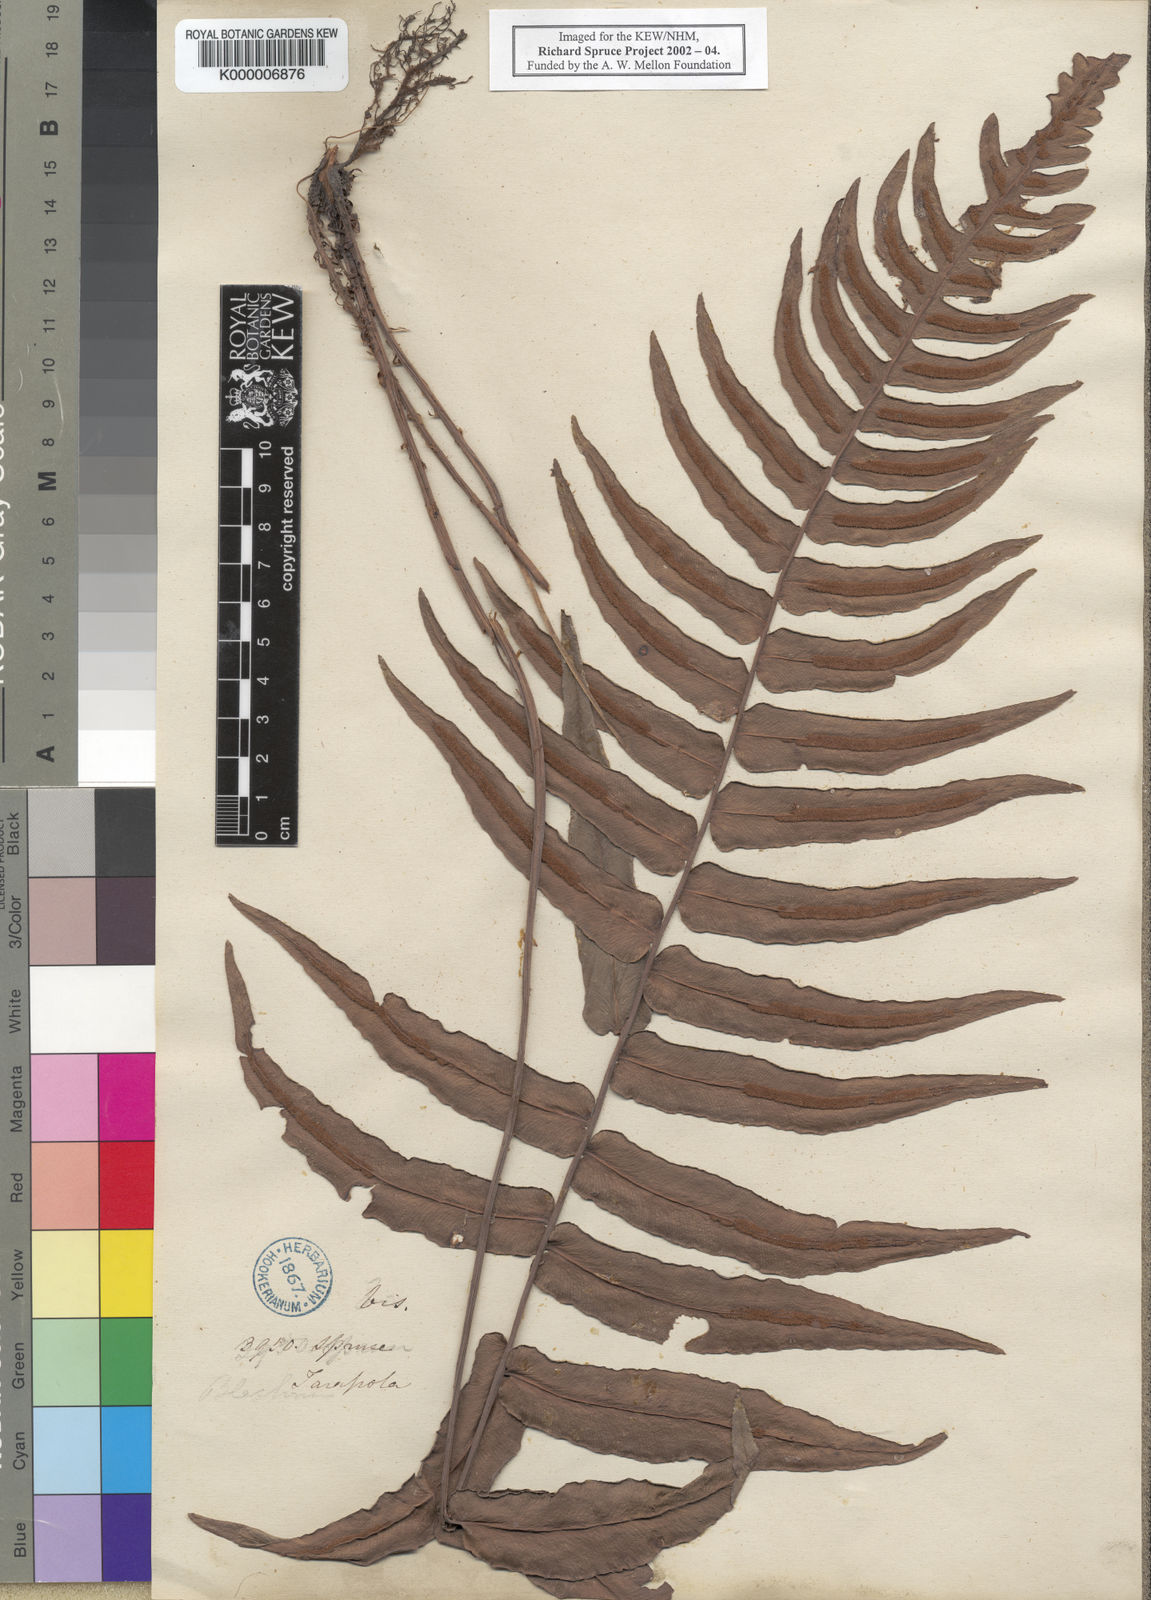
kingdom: Plantae
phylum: Tracheophyta
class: Polypodiopsida
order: Polypodiales
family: Blechnaceae
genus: Blechnum
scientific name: Blechnum
